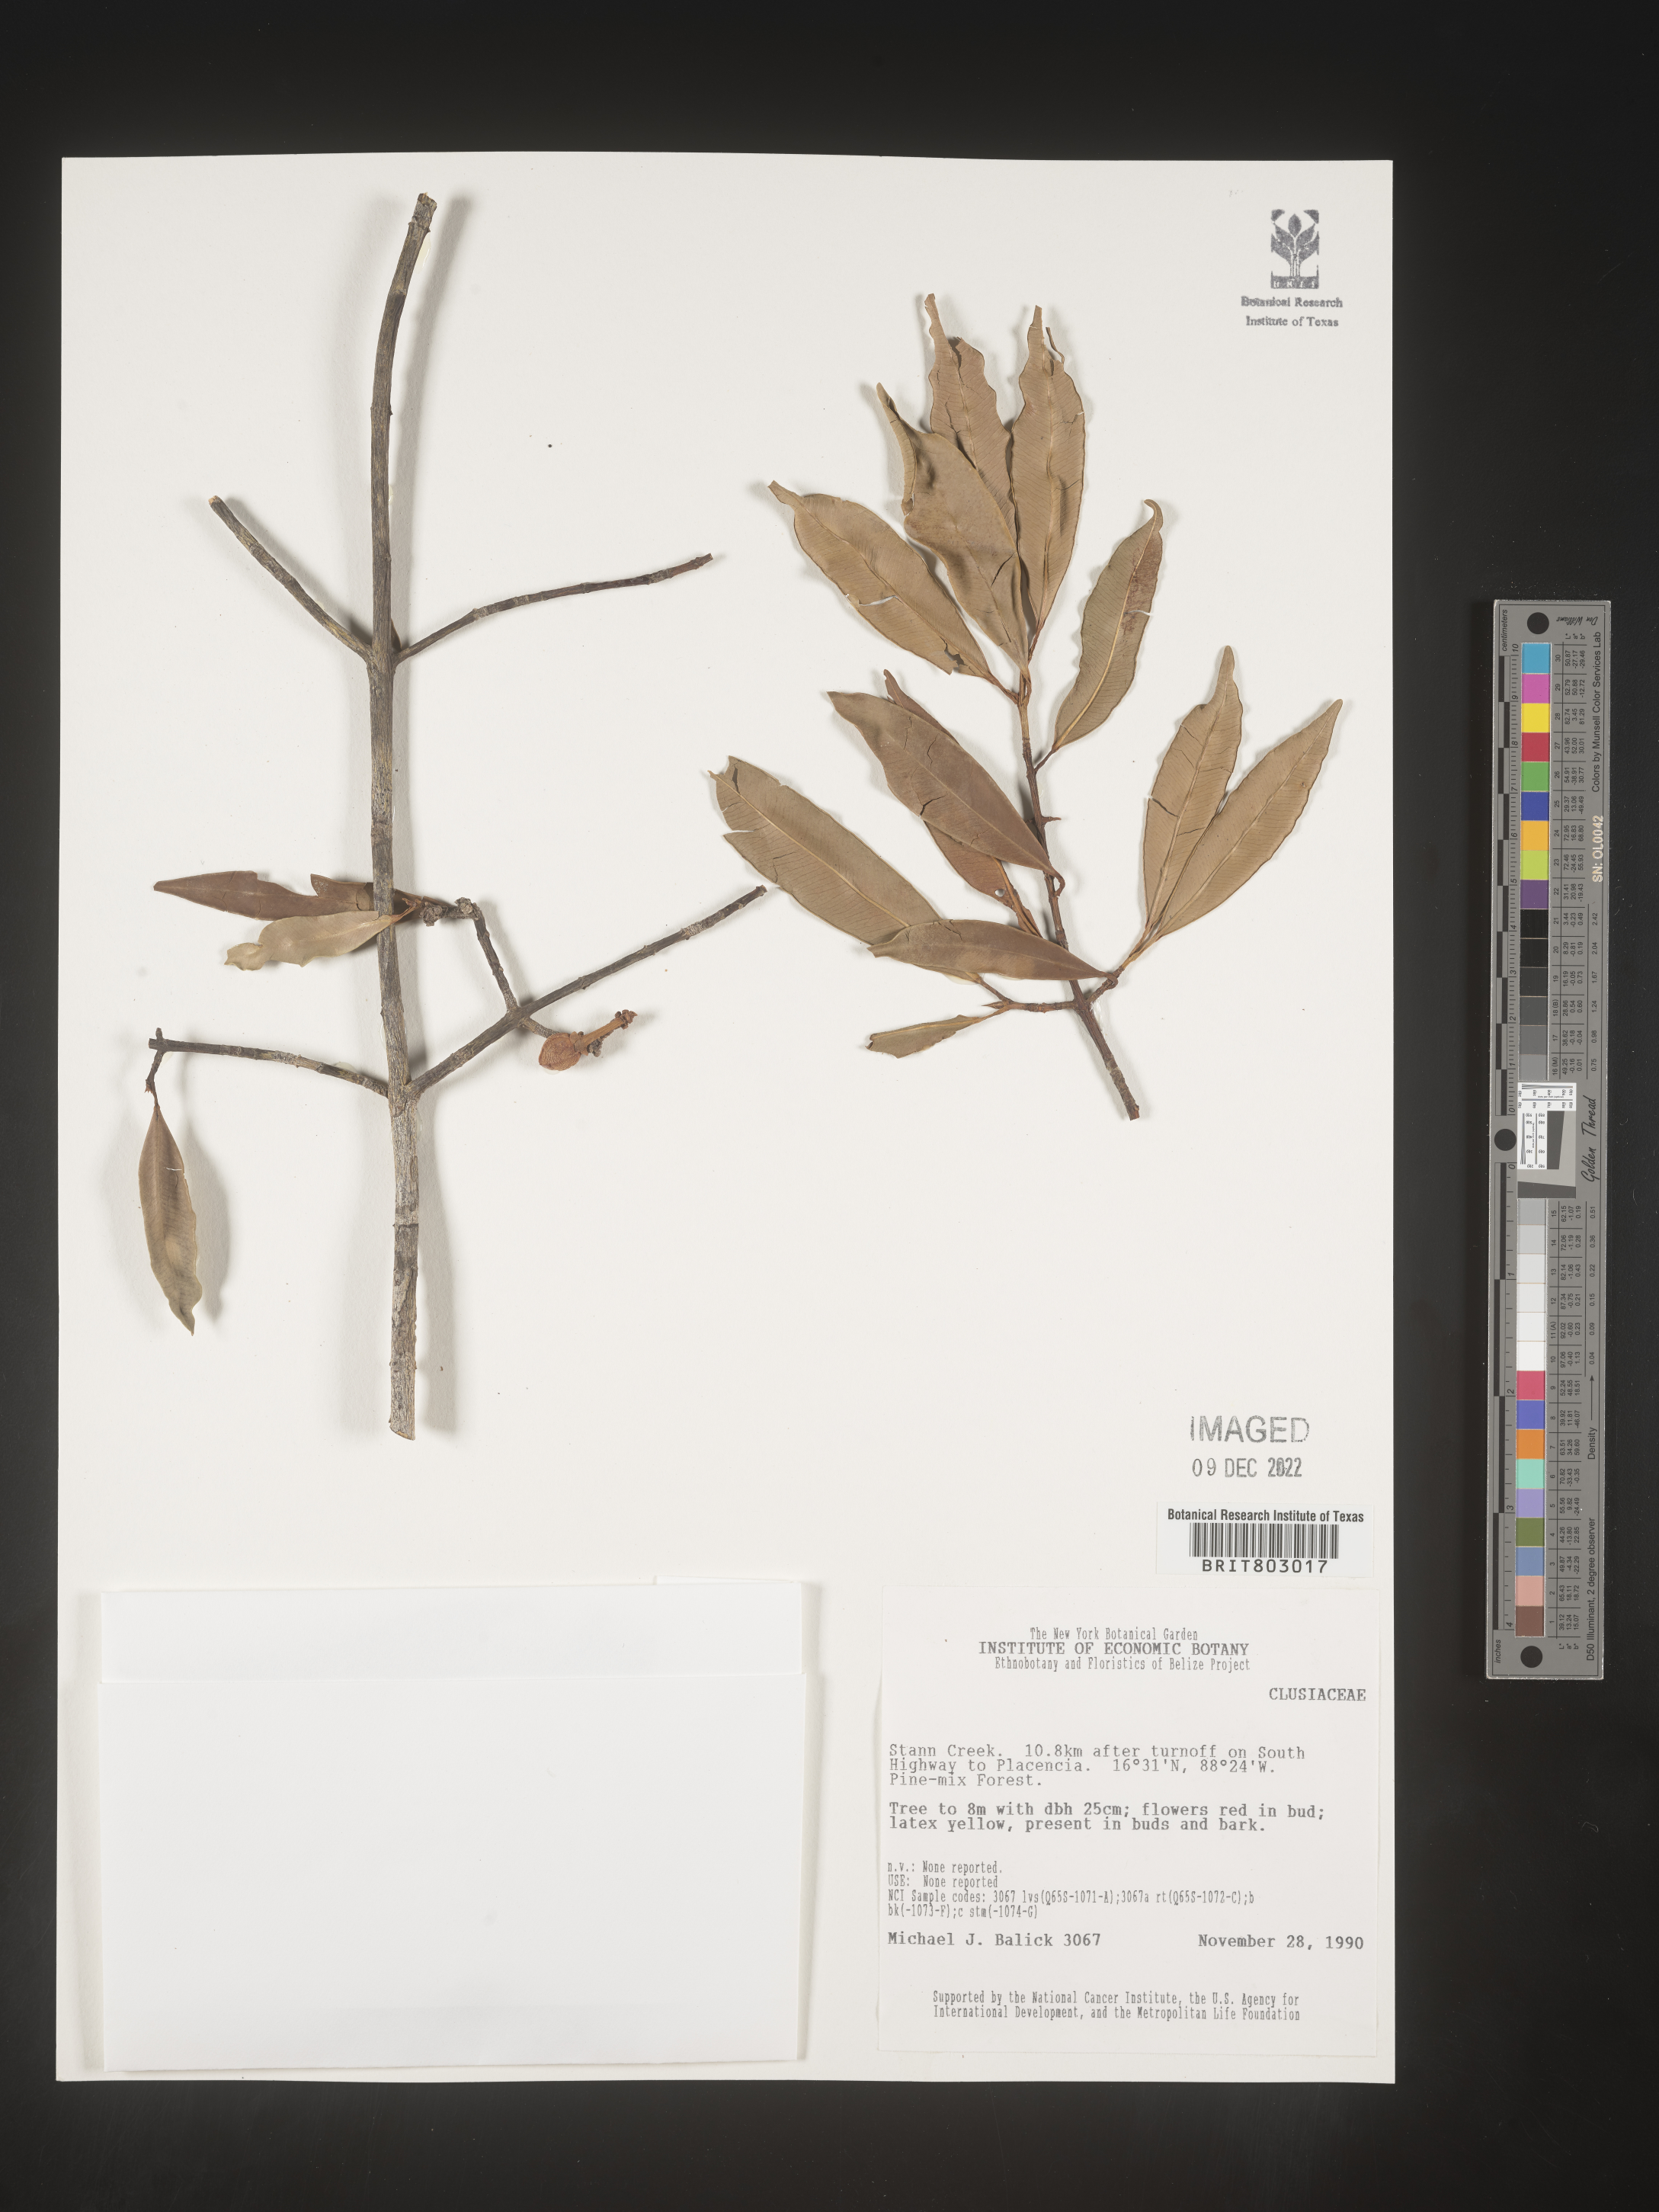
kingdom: Plantae
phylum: Tracheophyta
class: Magnoliopsida
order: Malpighiales
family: Clusiaceae
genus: Moronobea
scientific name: Moronobea
